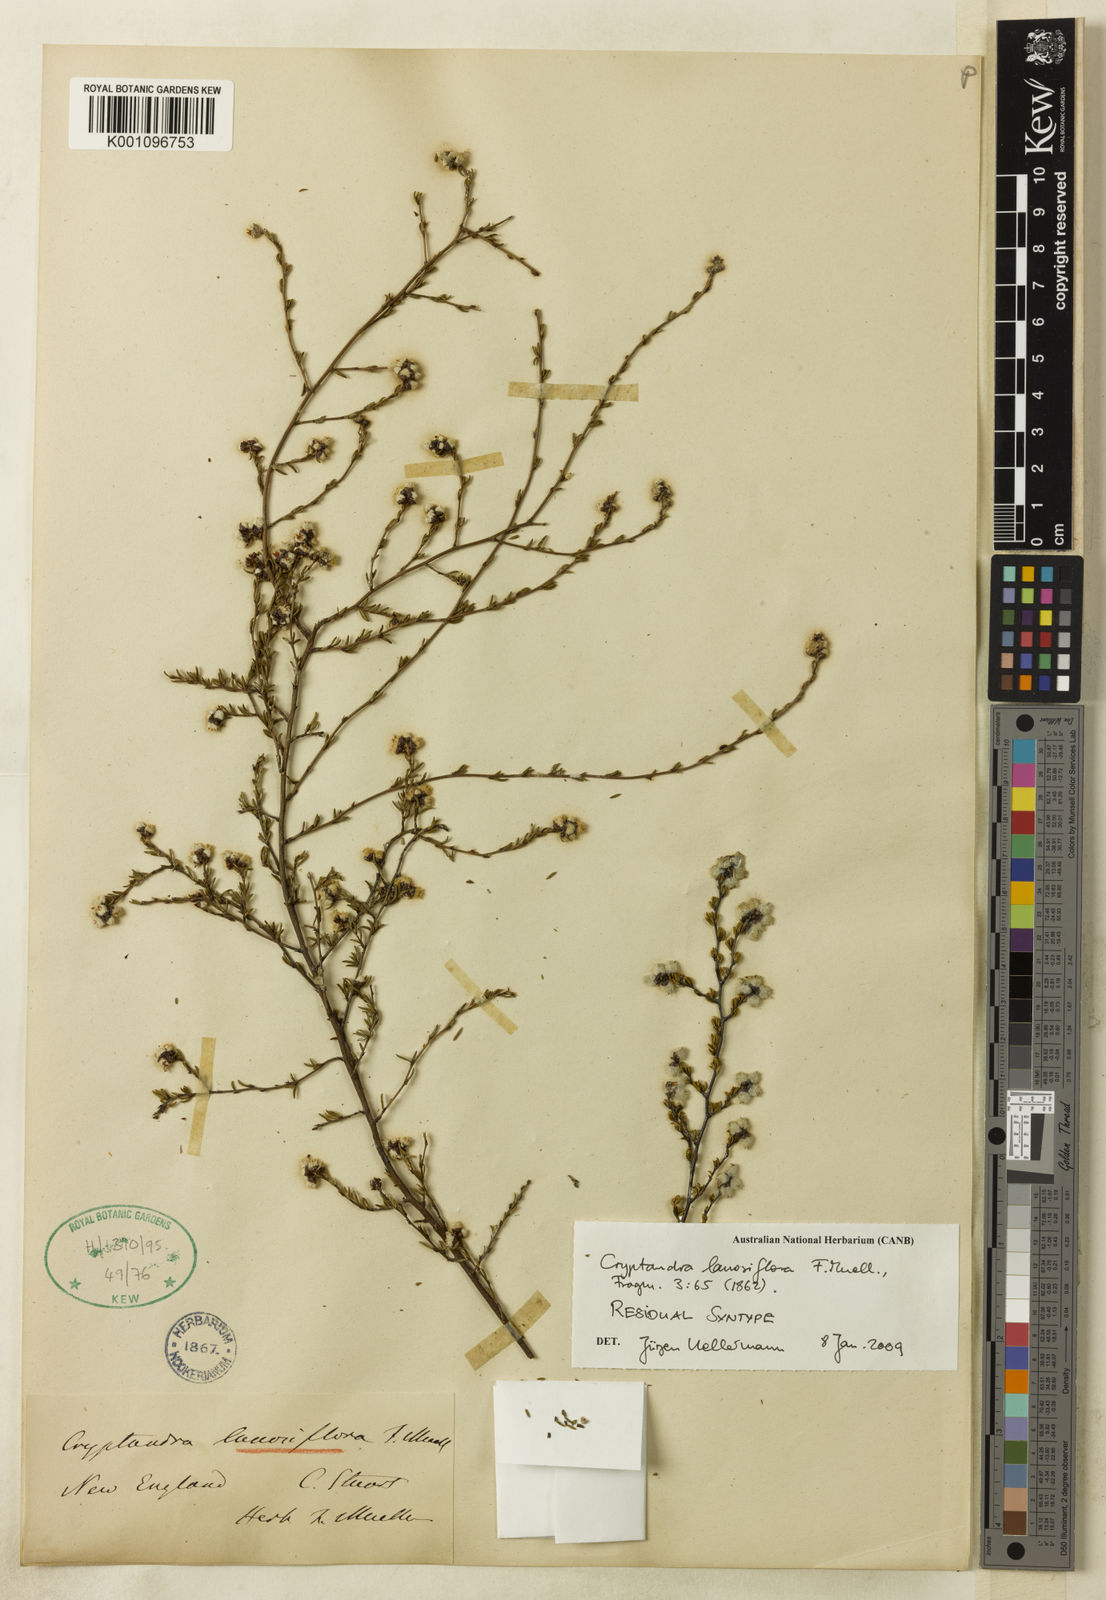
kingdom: Plantae
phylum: Tracheophyta
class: Magnoliopsida
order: Rosales
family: Rhamnaceae
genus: Cryptandra
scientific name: Cryptandra lanosiflora
